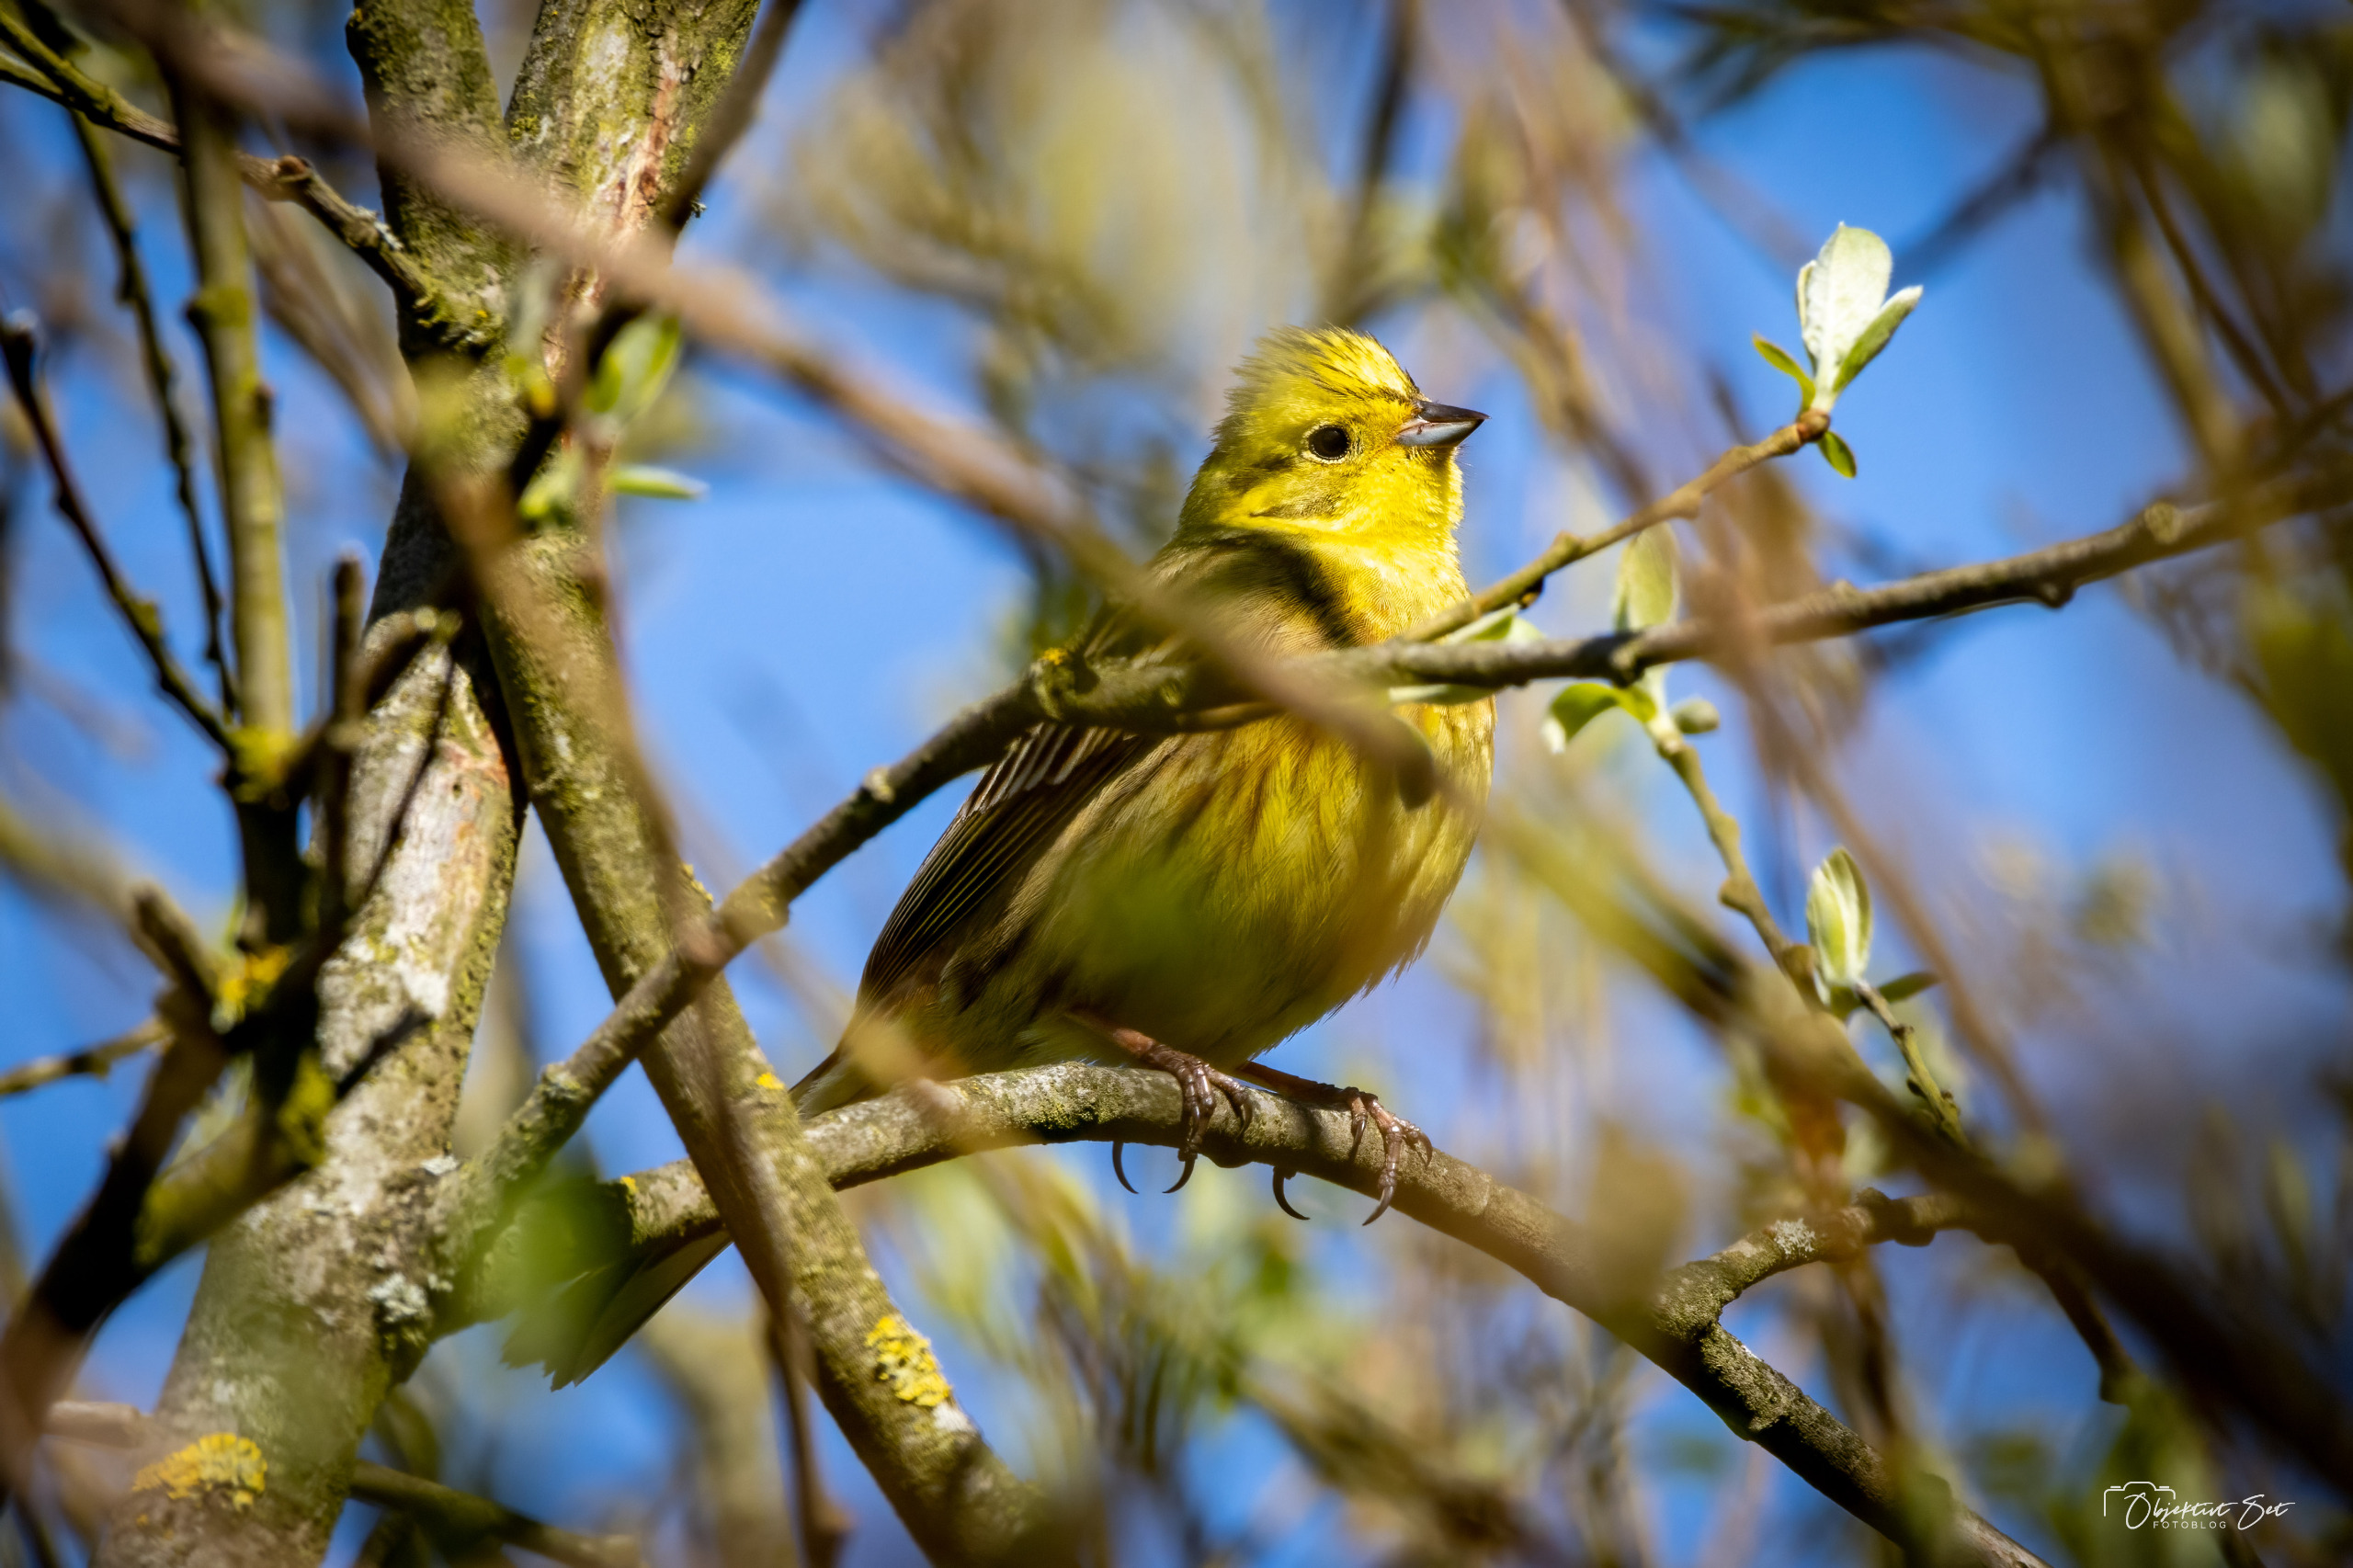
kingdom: Animalia
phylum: Chordata
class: Aves
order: Passeriformes
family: Emberizidae
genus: Emberiza
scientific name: Emberiza citrinella
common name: Gulspurv
